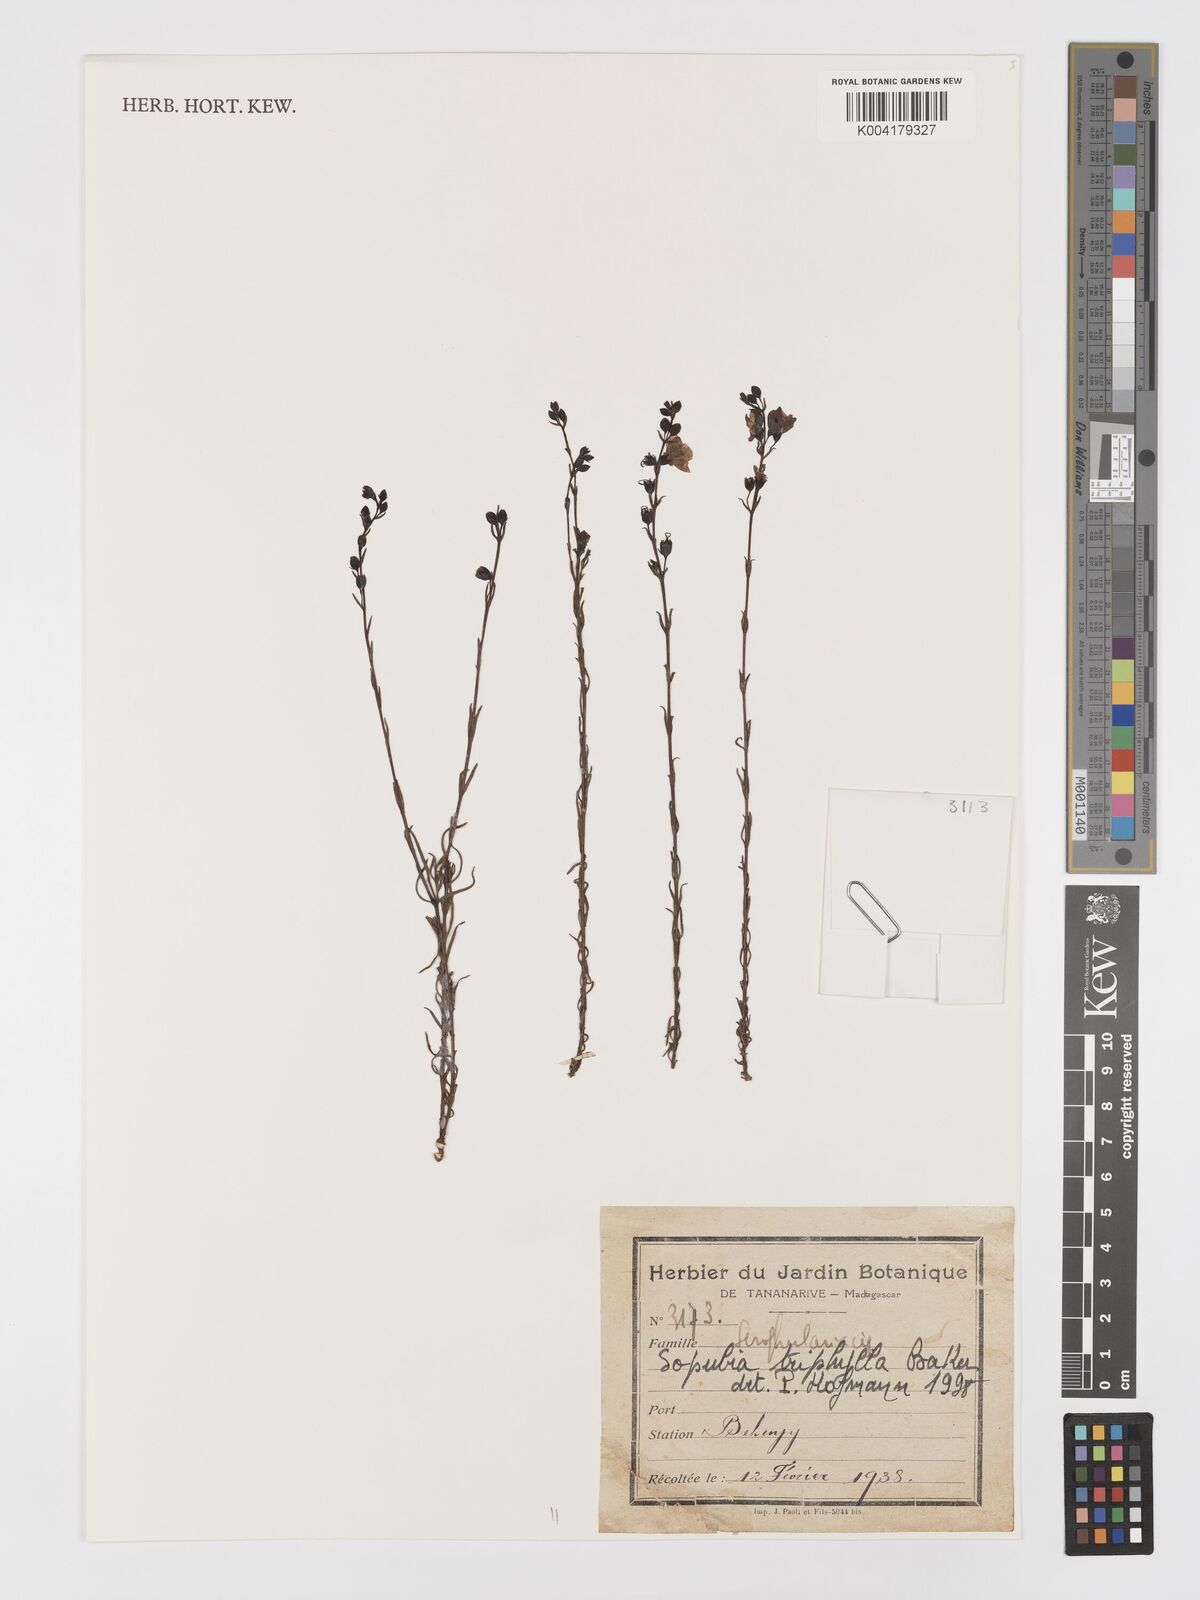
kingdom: Plantae
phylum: Tracheophyta
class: Magnoliopsida
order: Lamiales
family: Orobanchaceae
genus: Sopubia
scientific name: Sopubia triphylla
